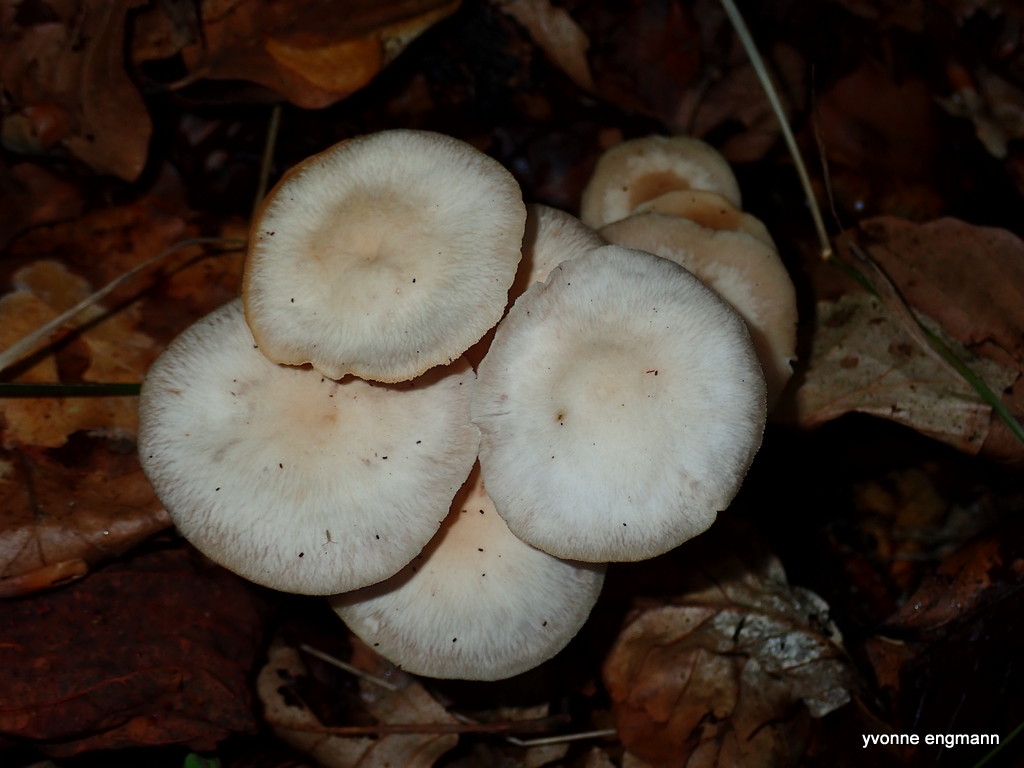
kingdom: Fungi
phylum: Basidiomycota
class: Agaricomycetes
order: Agaricales
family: Omphalotaceae
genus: Collybiopsis
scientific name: Collybiopsis confluens
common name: knippe-fladhat
